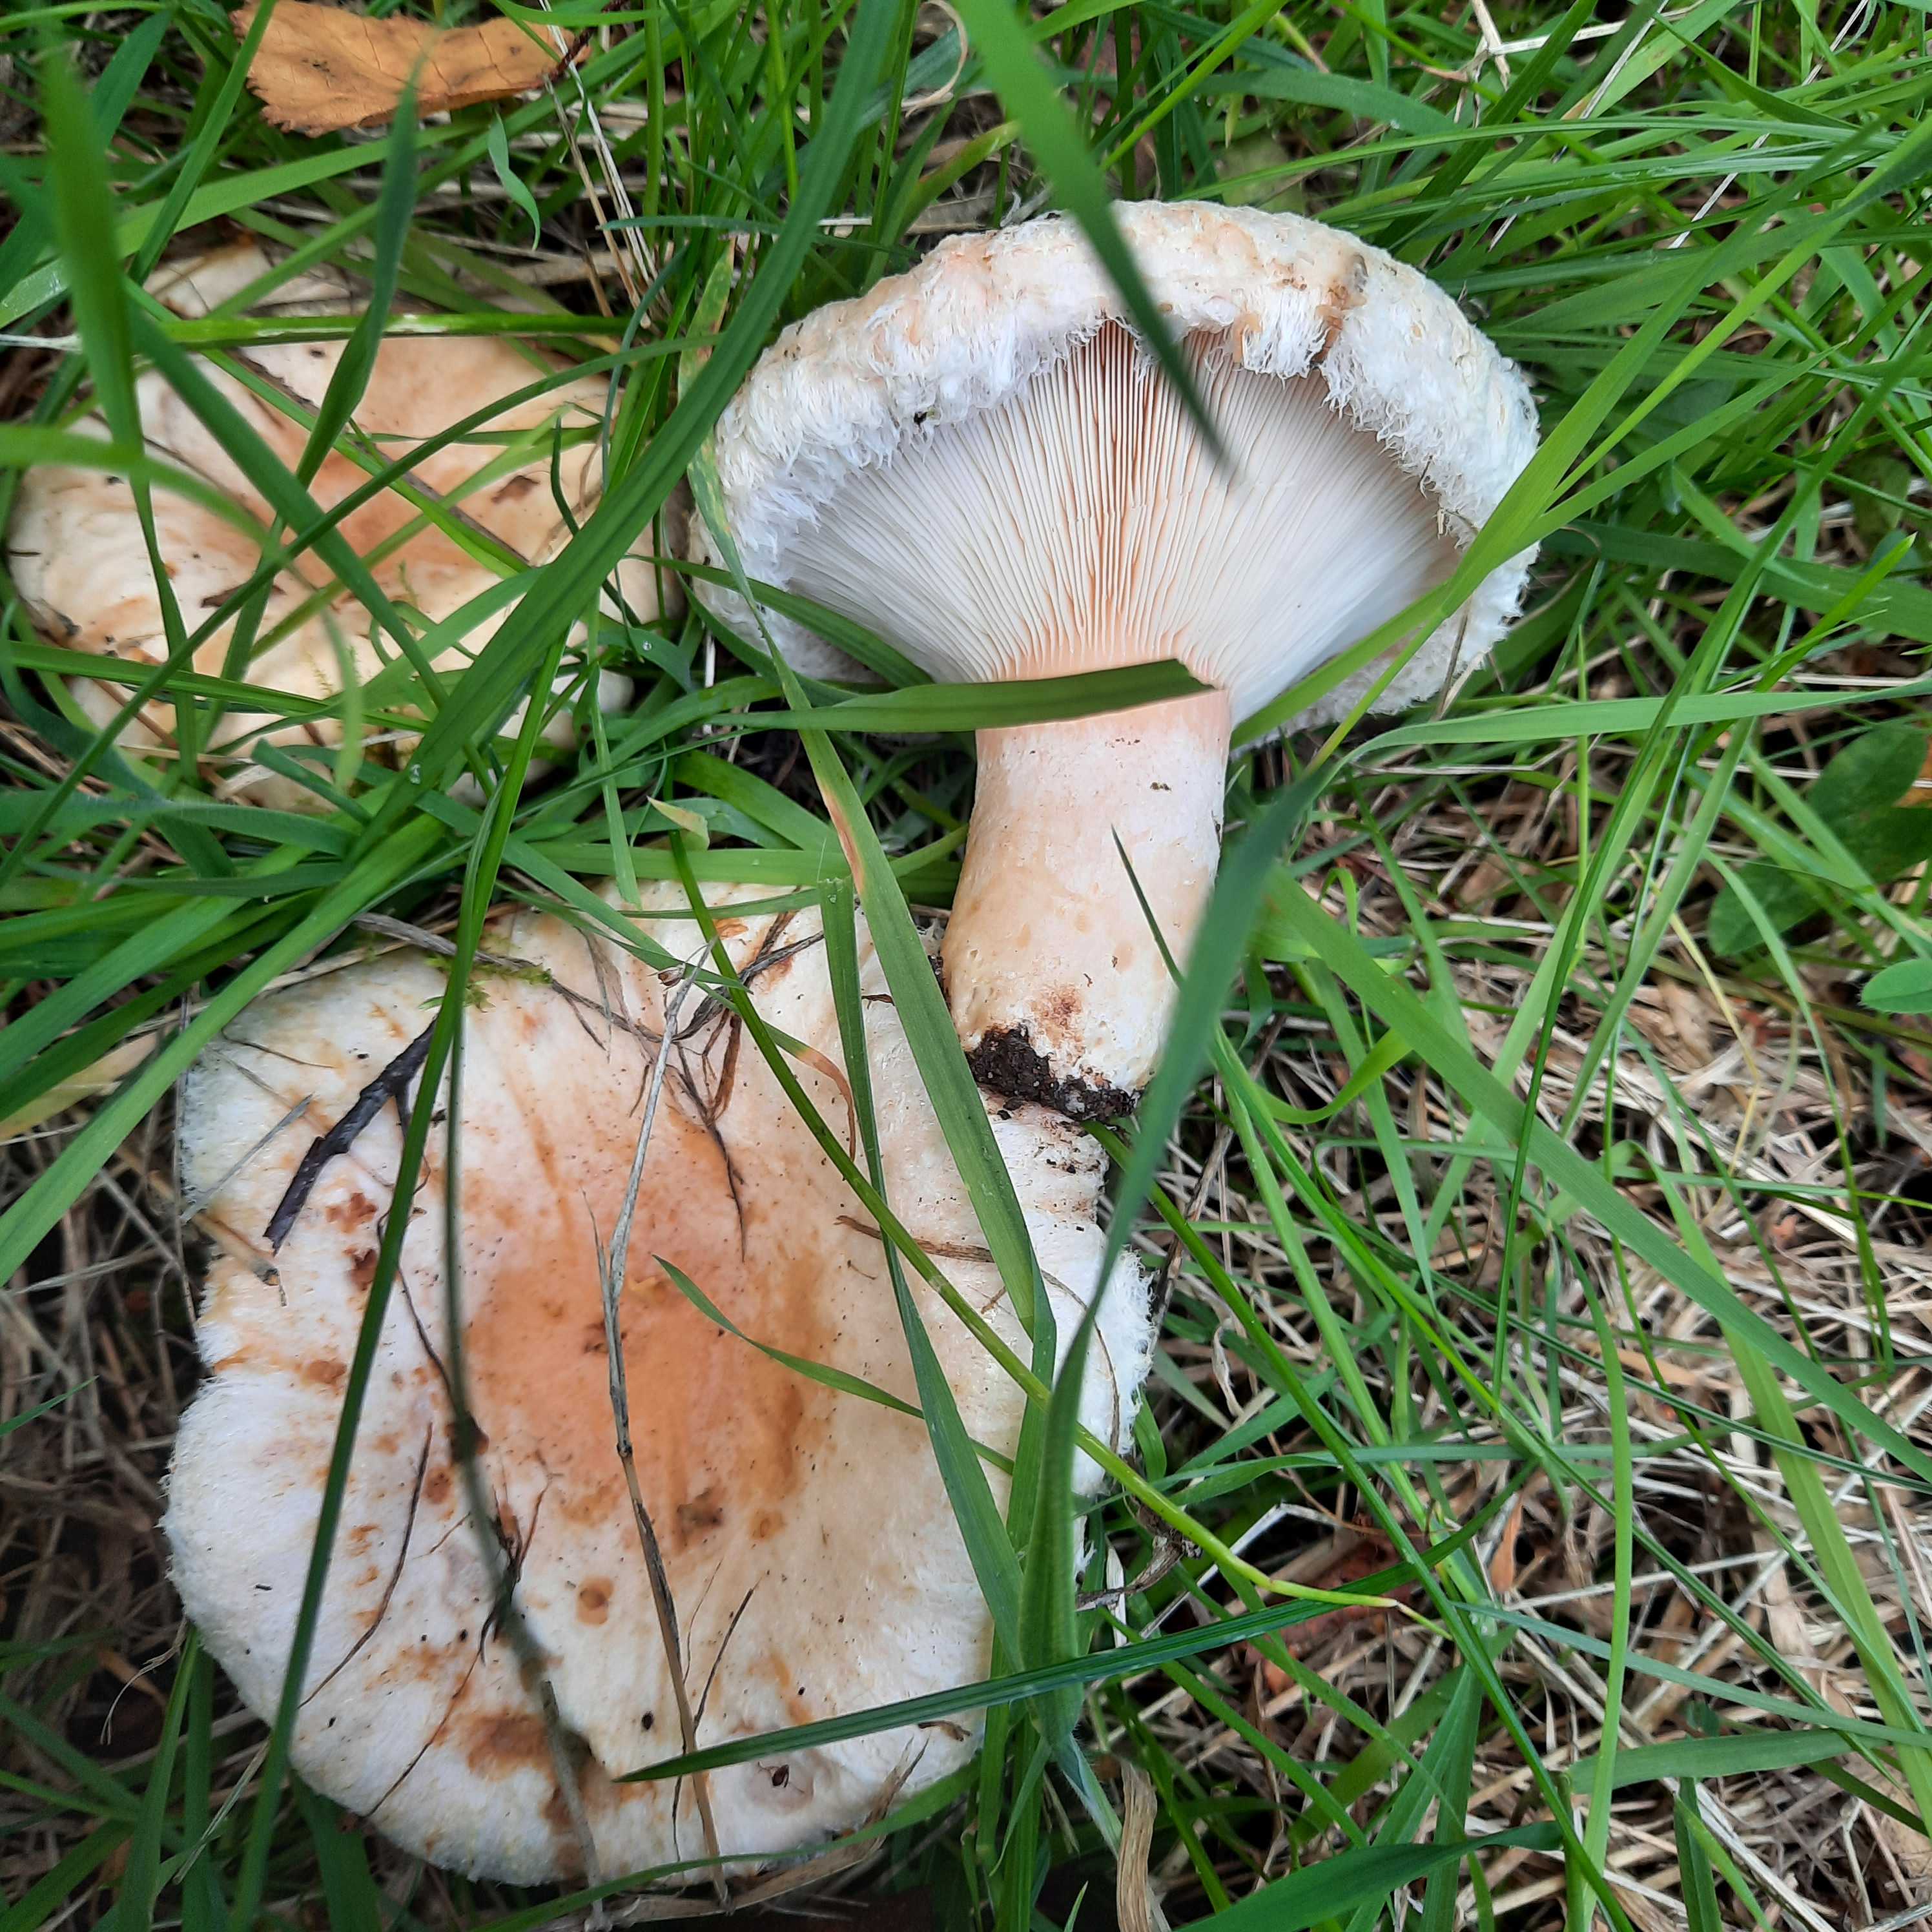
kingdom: Fungi
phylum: Basidiomycota
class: Agaricomycetes
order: Russulales
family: Russulaceae
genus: Lactarius
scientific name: Lactarius torminosus
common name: skægget mælkehat
